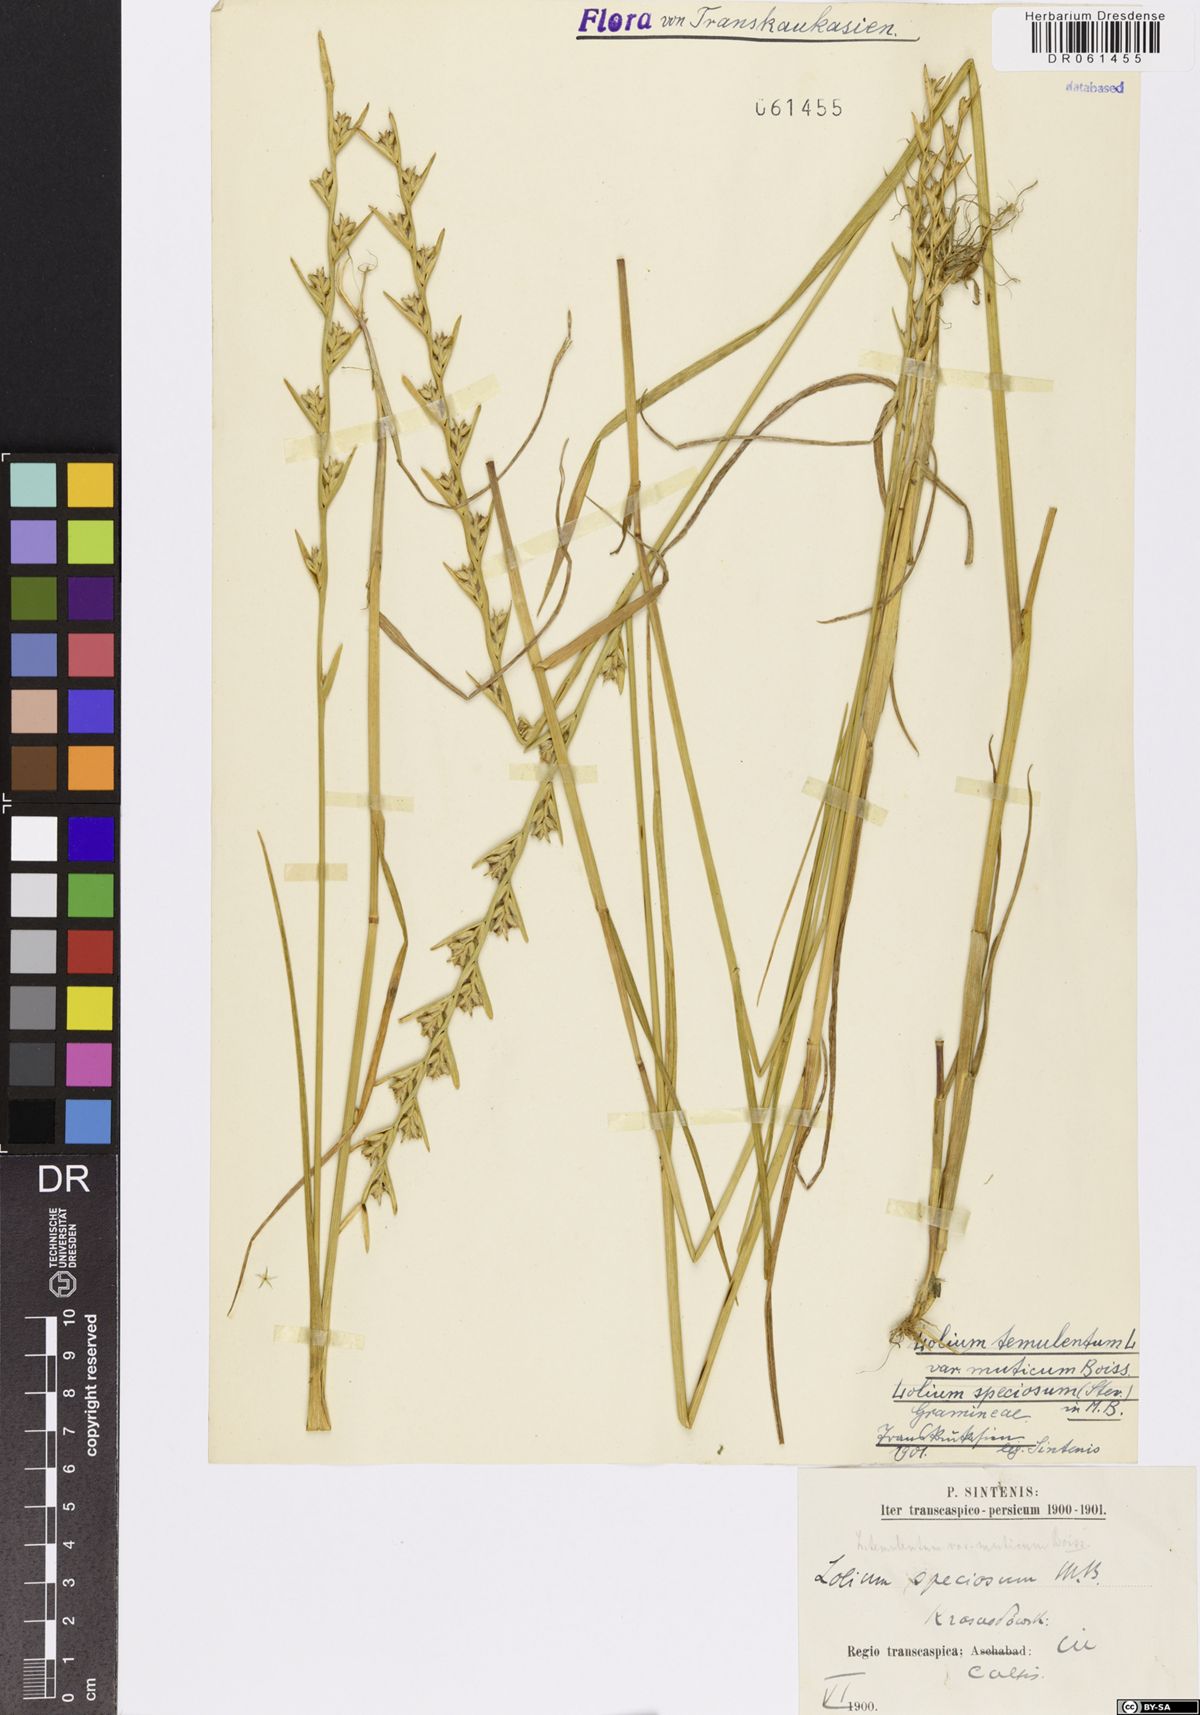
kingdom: Plantae
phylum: Tracheophyta
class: Liliopsida
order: Poales
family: Poaceae
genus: Lolium
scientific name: Lolium temulentum
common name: Darnel
